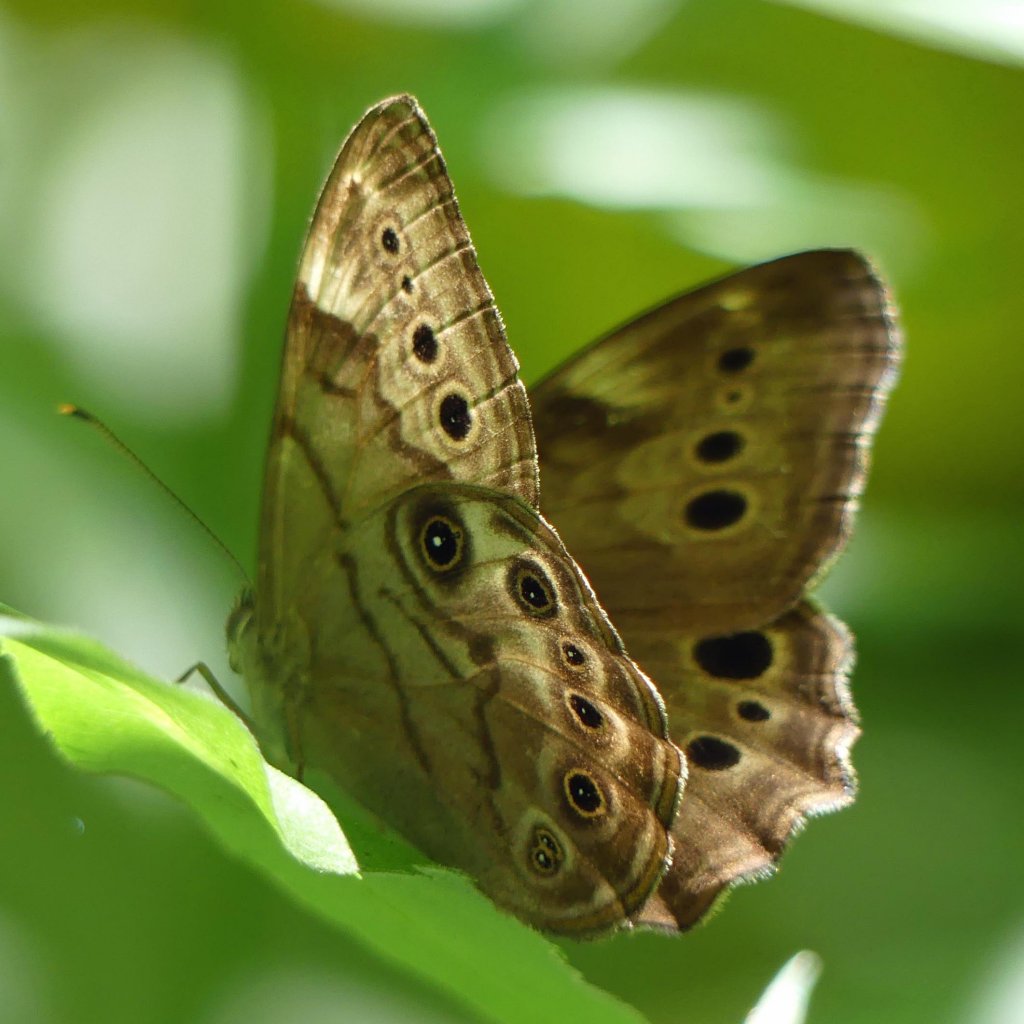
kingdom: Animalia
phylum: Arthropoda
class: Insecta
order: Lepidoptera
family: Nymphalidae
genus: Lethe
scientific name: Lethe anthedon
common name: Northern Pearly-Eye
